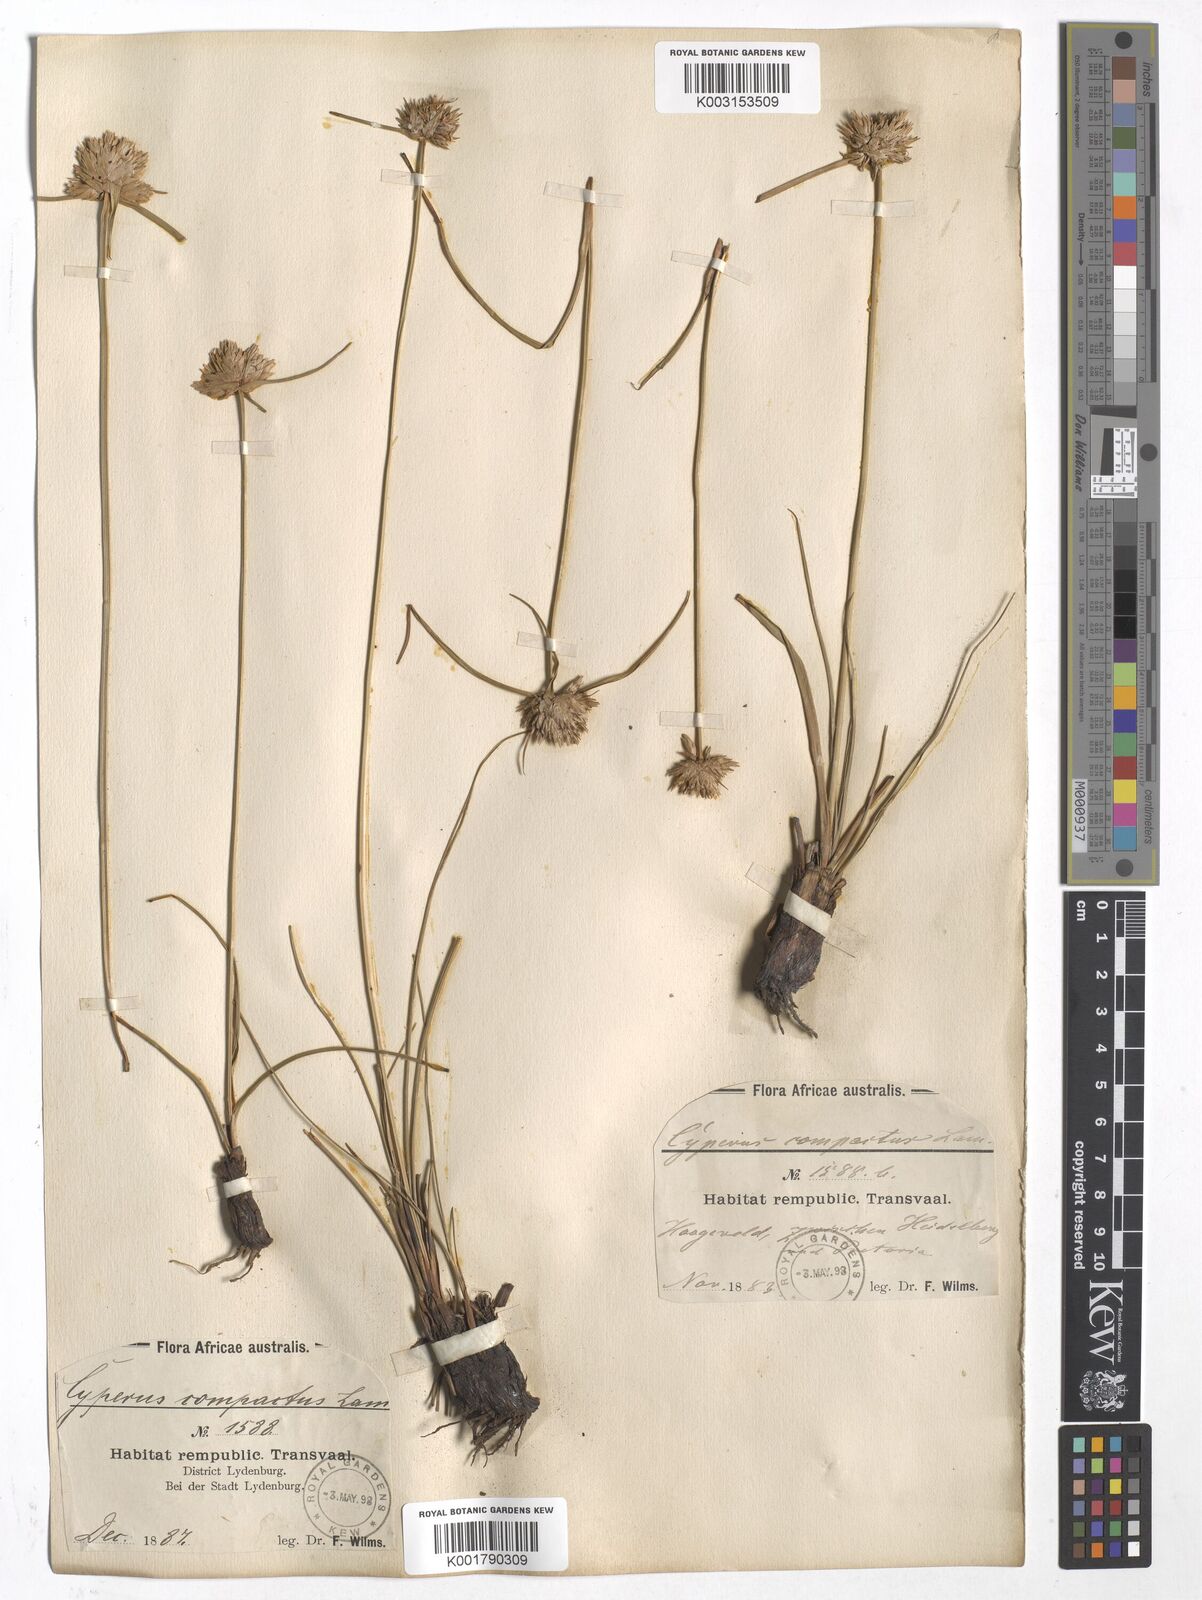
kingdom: Plantae
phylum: Tracheophyta
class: Liliopsida
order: Poales
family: Cyperaceae
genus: Cyperus
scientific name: Cyperus niveus
